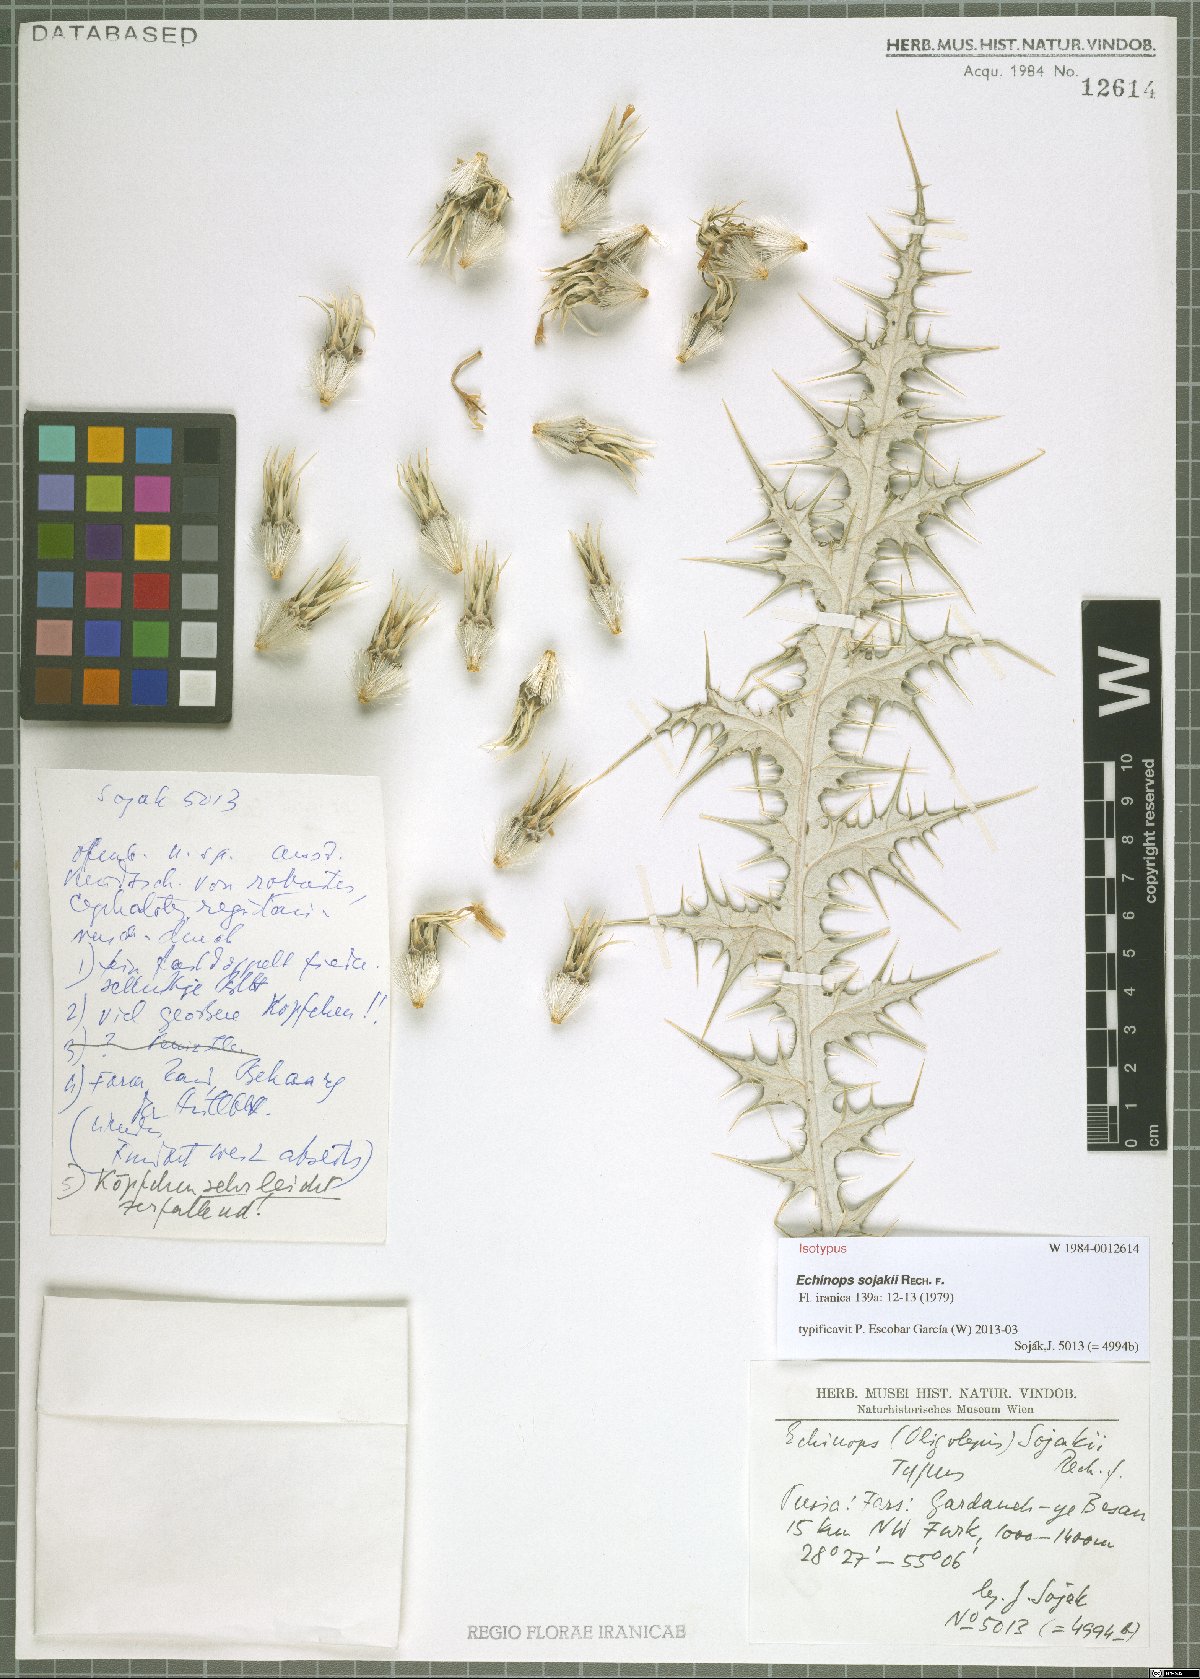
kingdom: Plantae
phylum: Tracheophyta
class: Magnoliopsida
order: Asterales
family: Asteraceae
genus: Echinops
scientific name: Echinops sojakii
